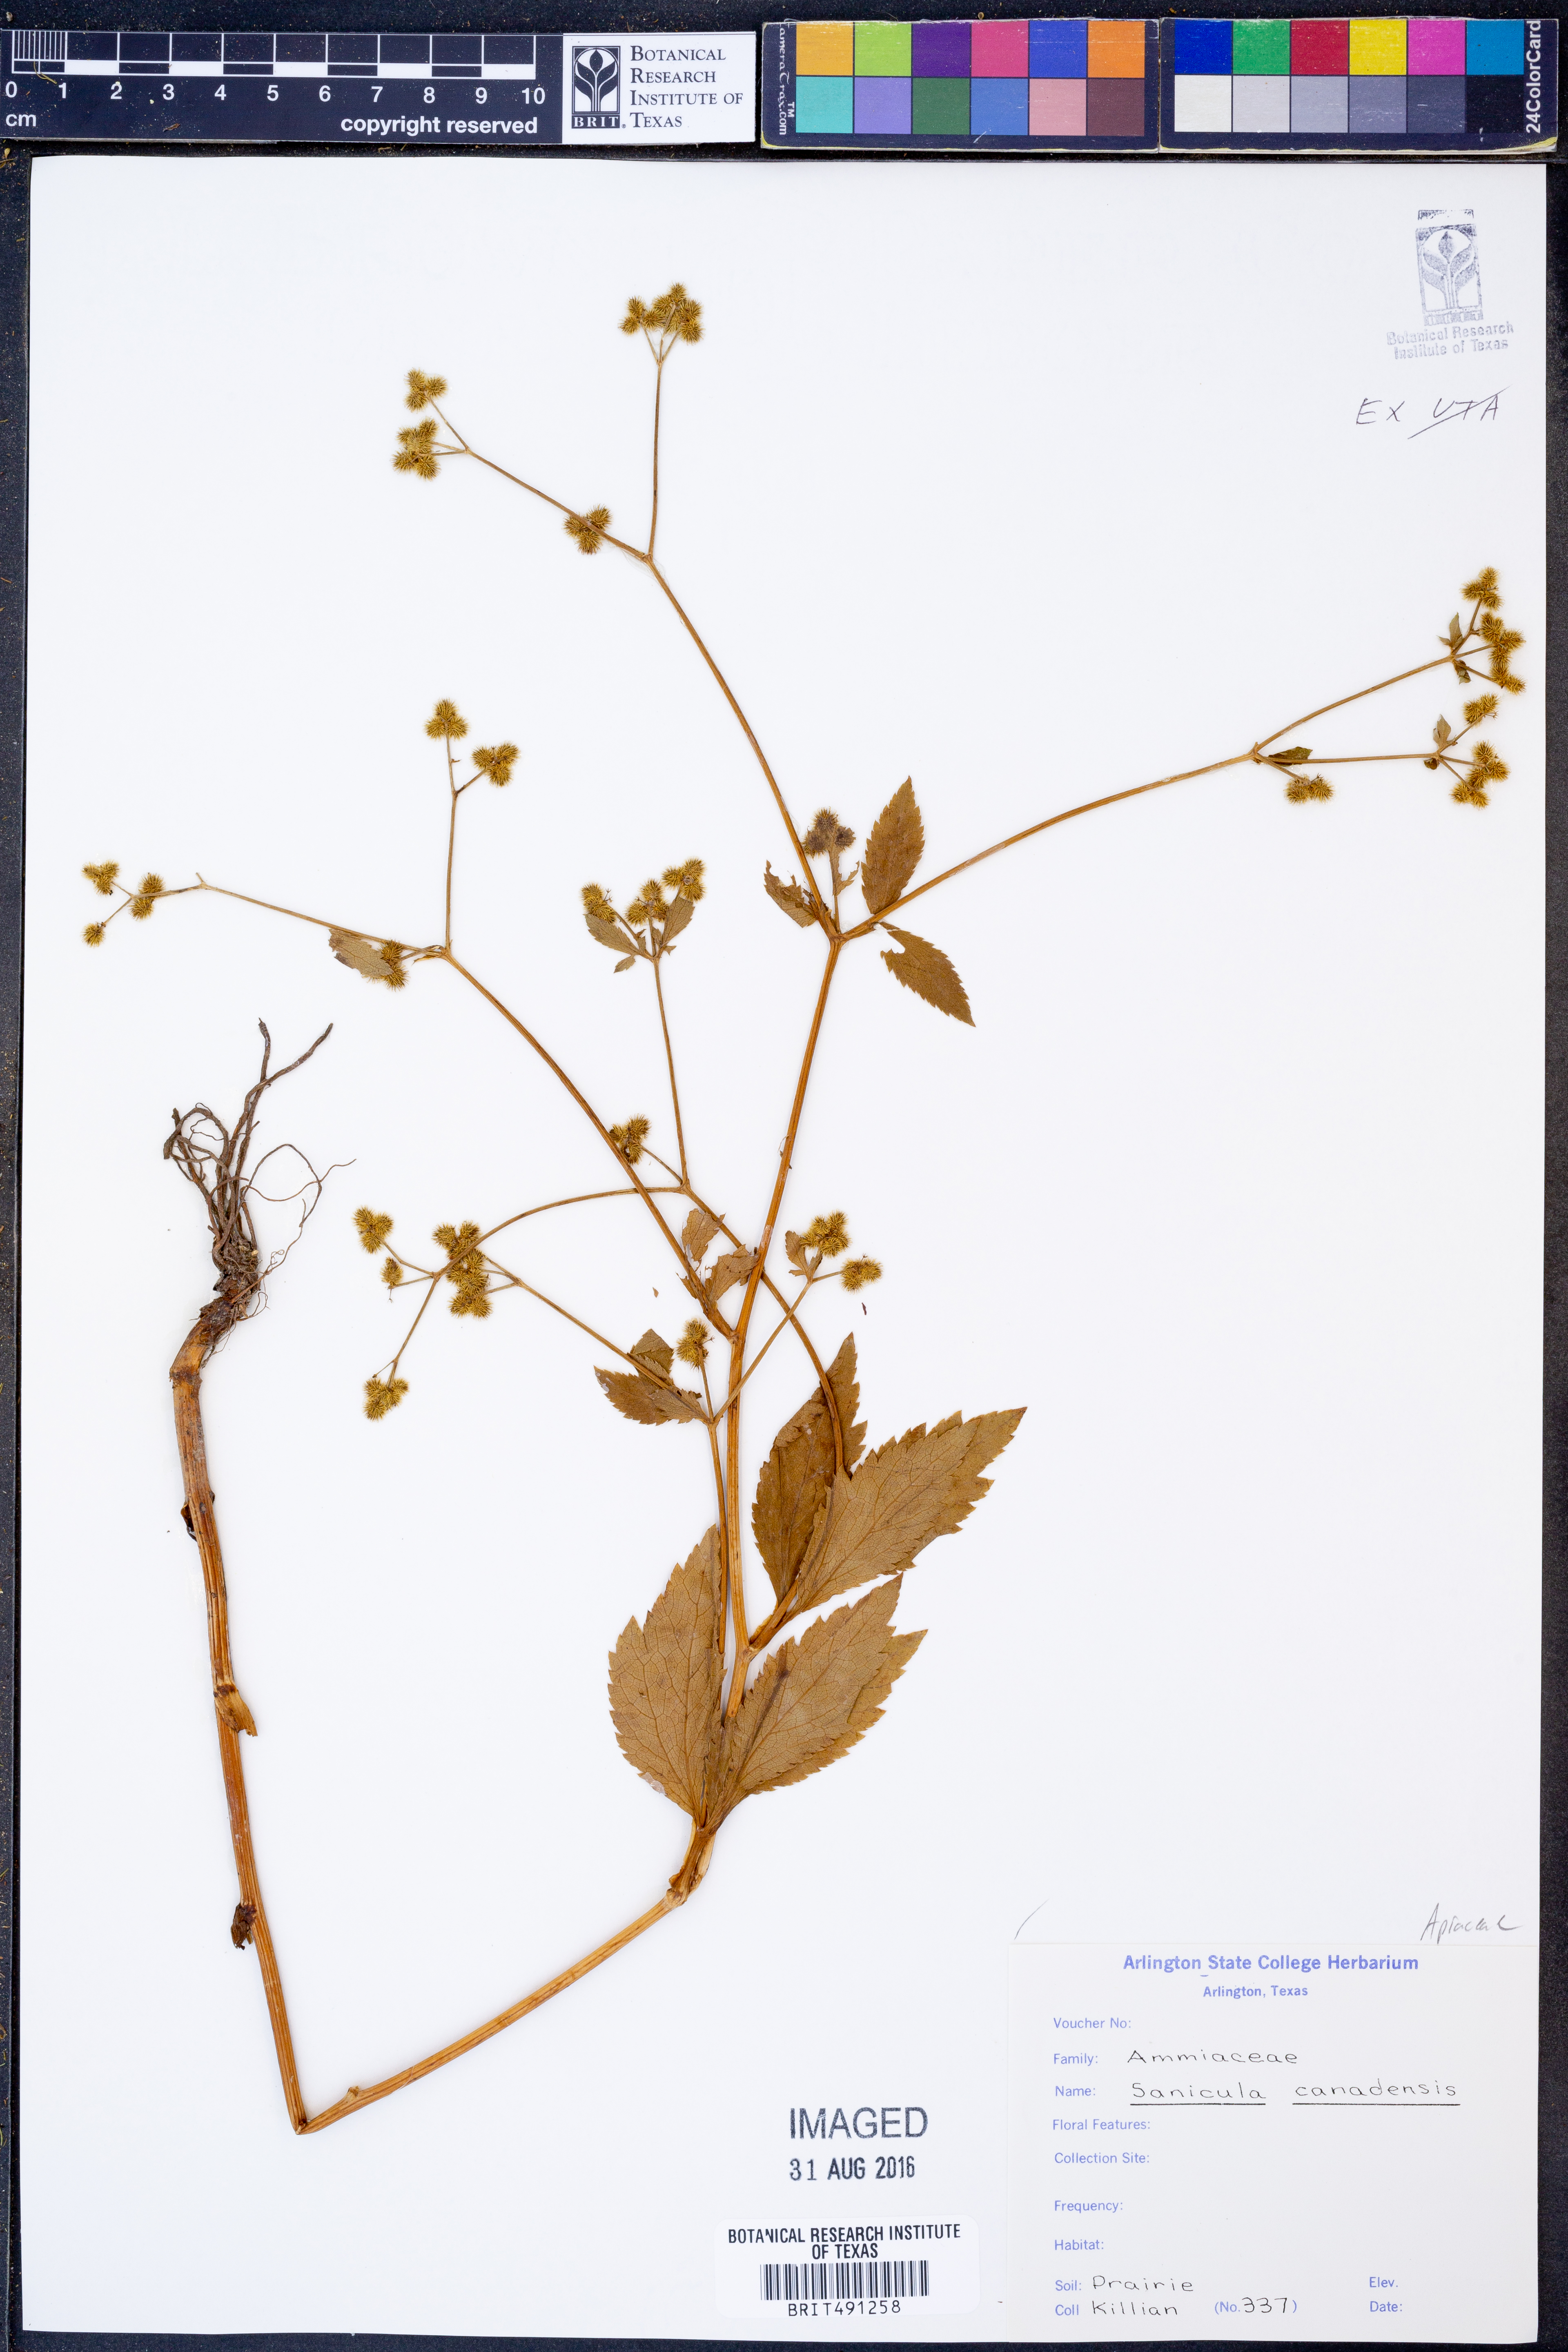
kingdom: Plantae
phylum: Tracheophyta
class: Magnoliopsida
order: Apiales
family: Apiaceae
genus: Sanicula
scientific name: Sanicula canadensis
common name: Canada sanicle
